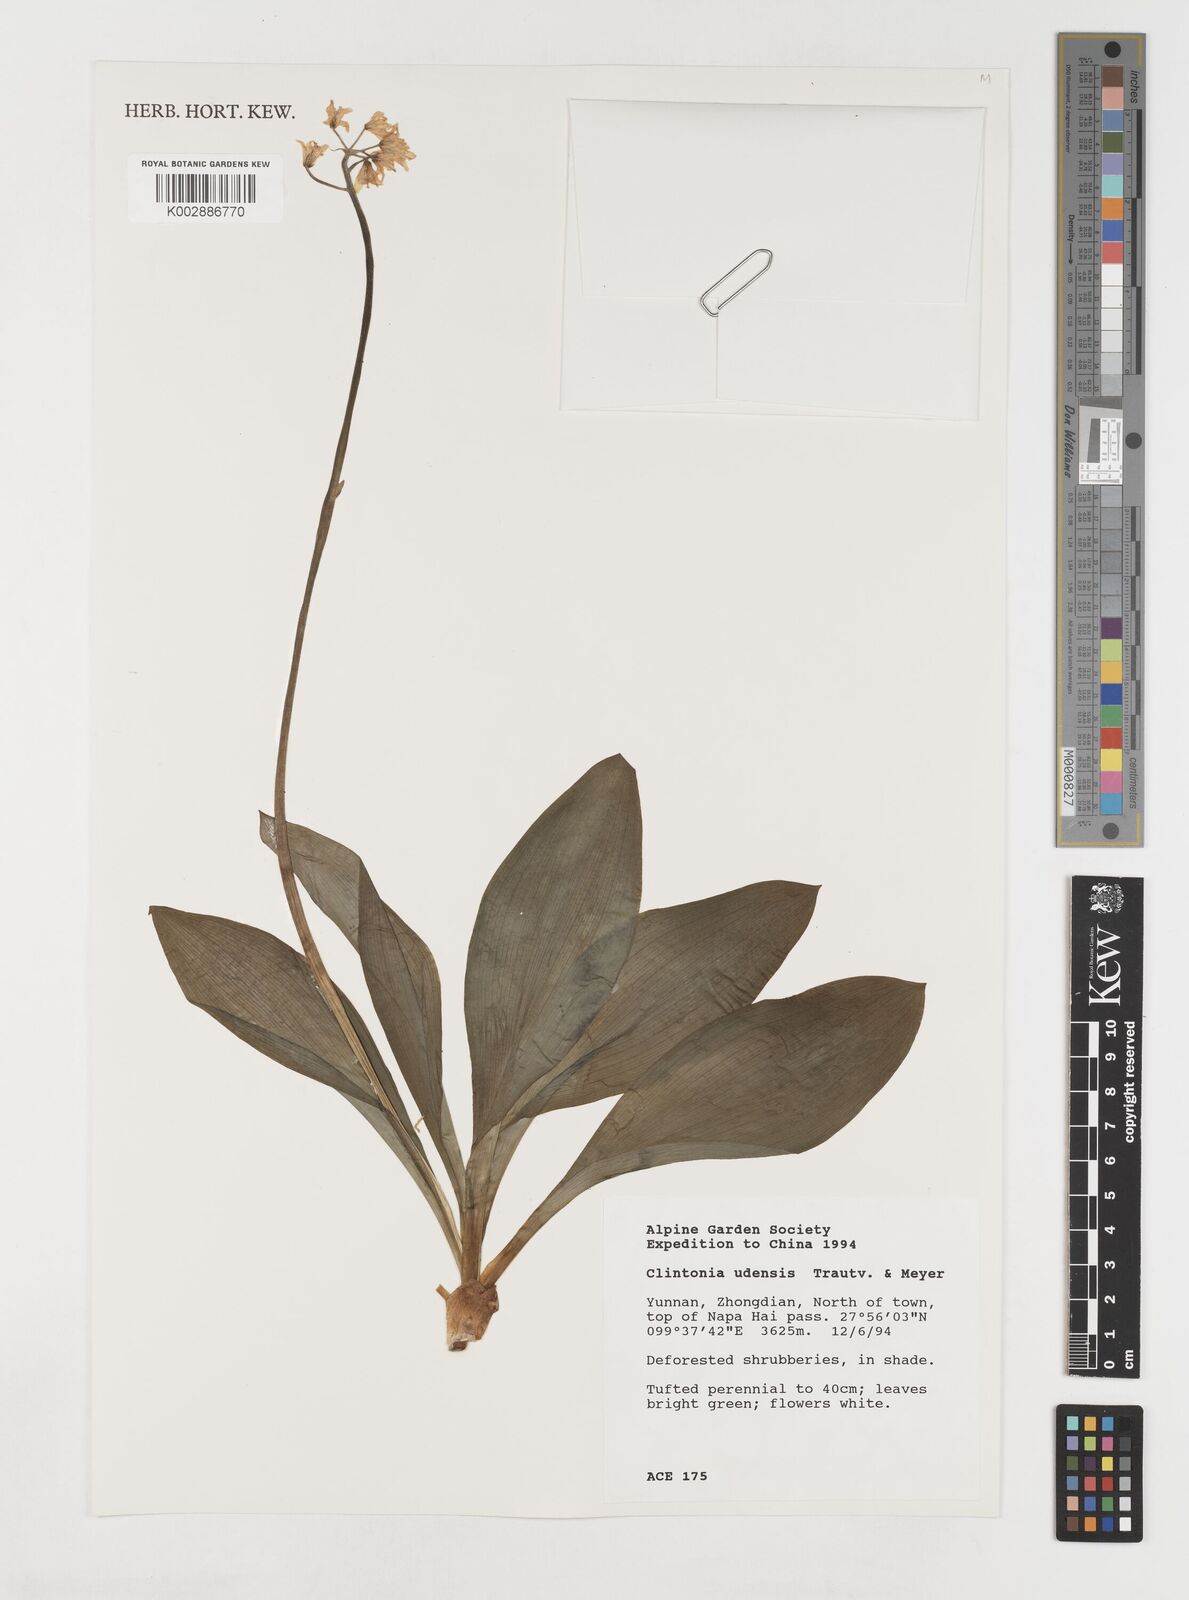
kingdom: Plantae
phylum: Tracheophyta
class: Liliopsida
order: Liliales
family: Liliaceae
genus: Clintonia
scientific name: Clintonia udensis
